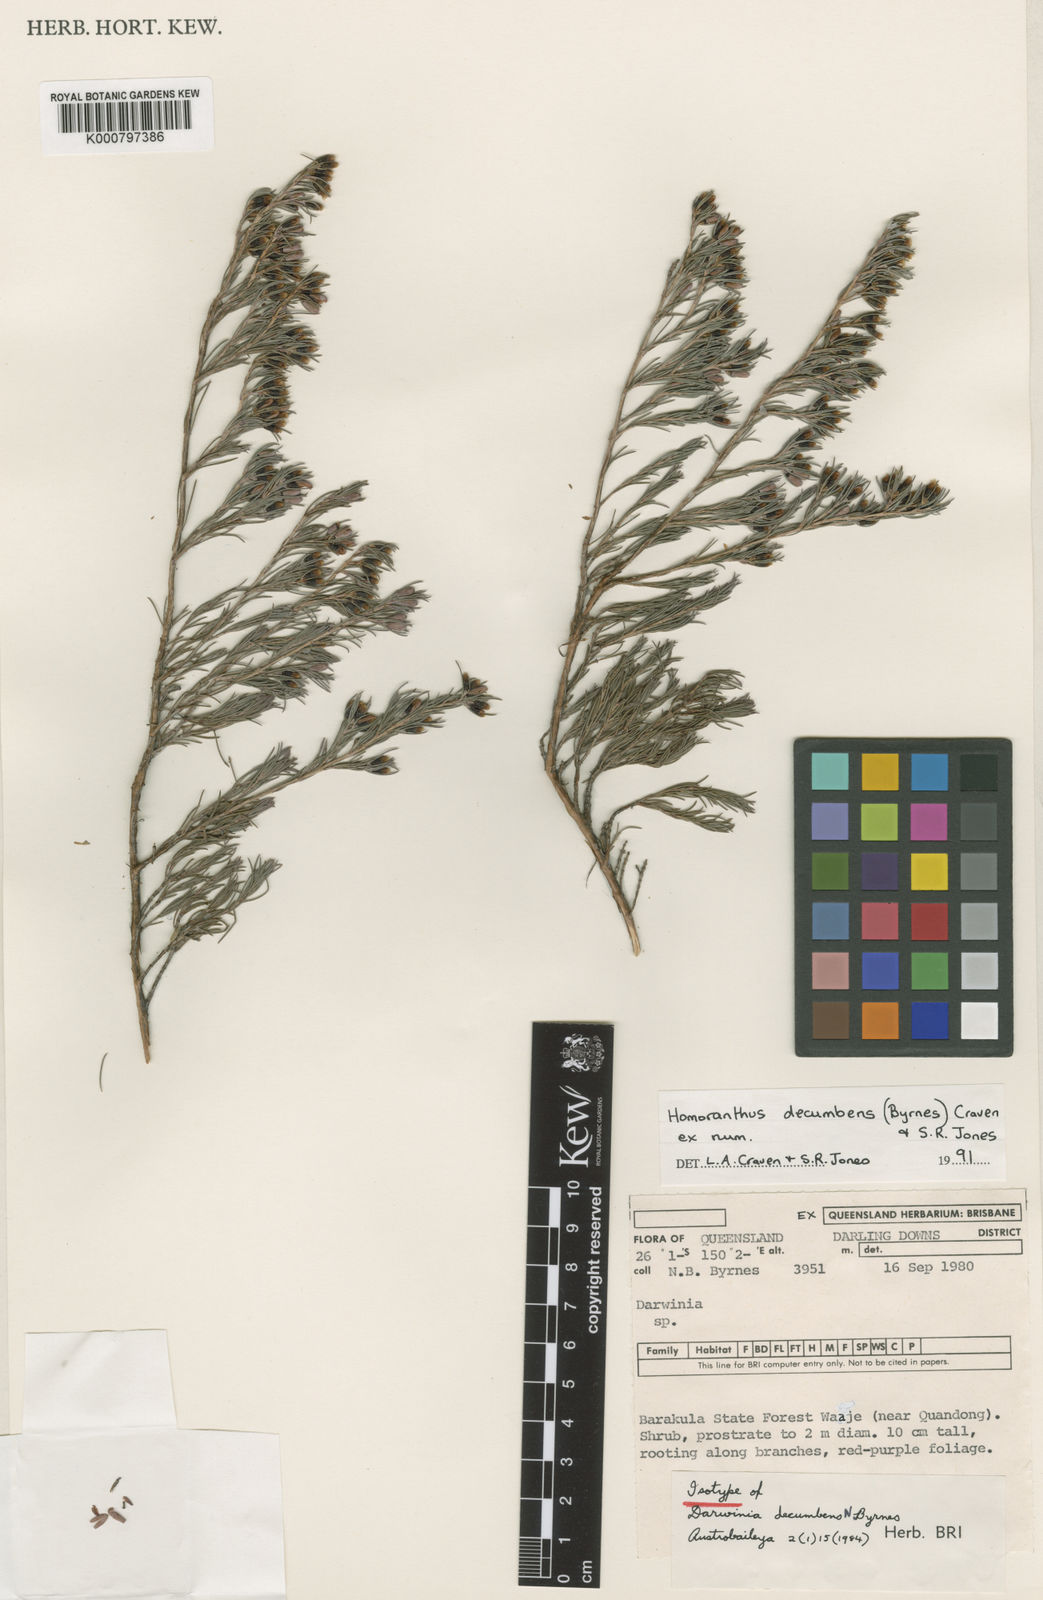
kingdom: Plantae
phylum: Tracheophyta
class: Magnoliopsida
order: Myrtales
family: Myrtaceae
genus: Homoranthus
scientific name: Homoranthus decumbens
